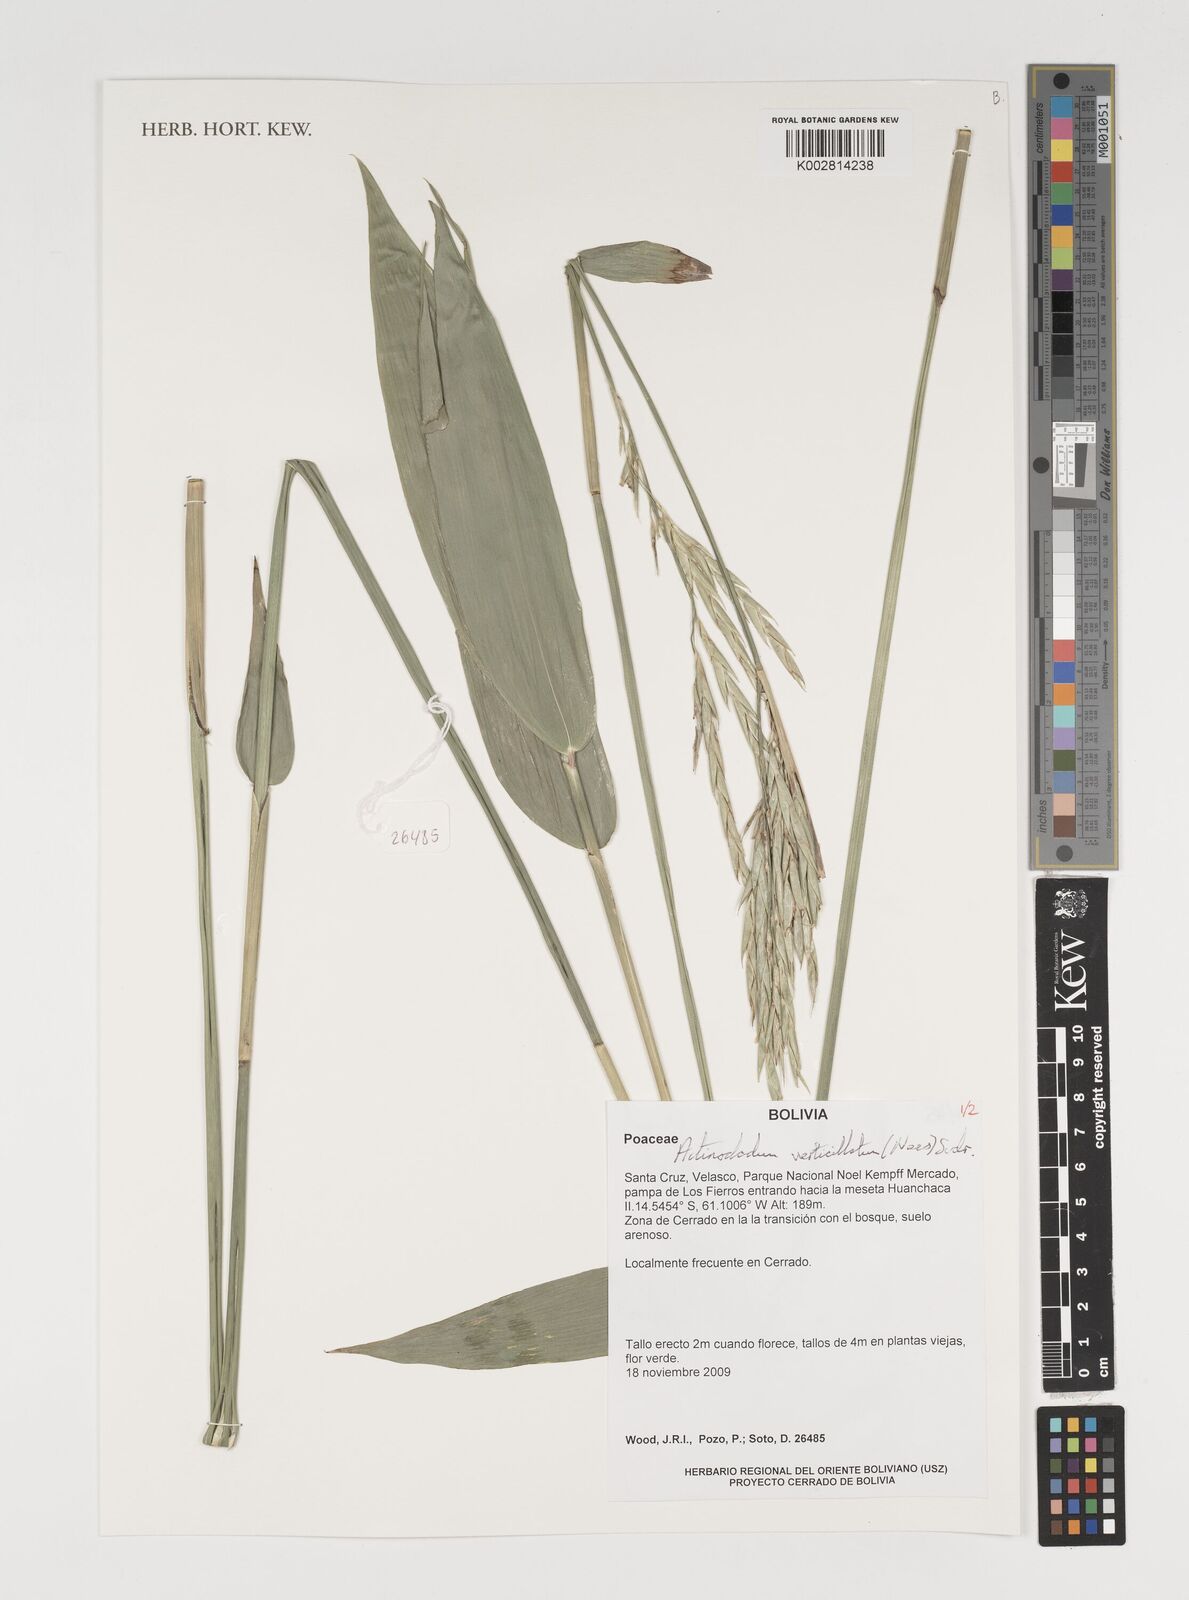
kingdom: Plantae
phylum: Tracheophyta
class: Liliopsida
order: Poales
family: Poaceae
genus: Actinocladum
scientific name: Actinocladum verticillatum
